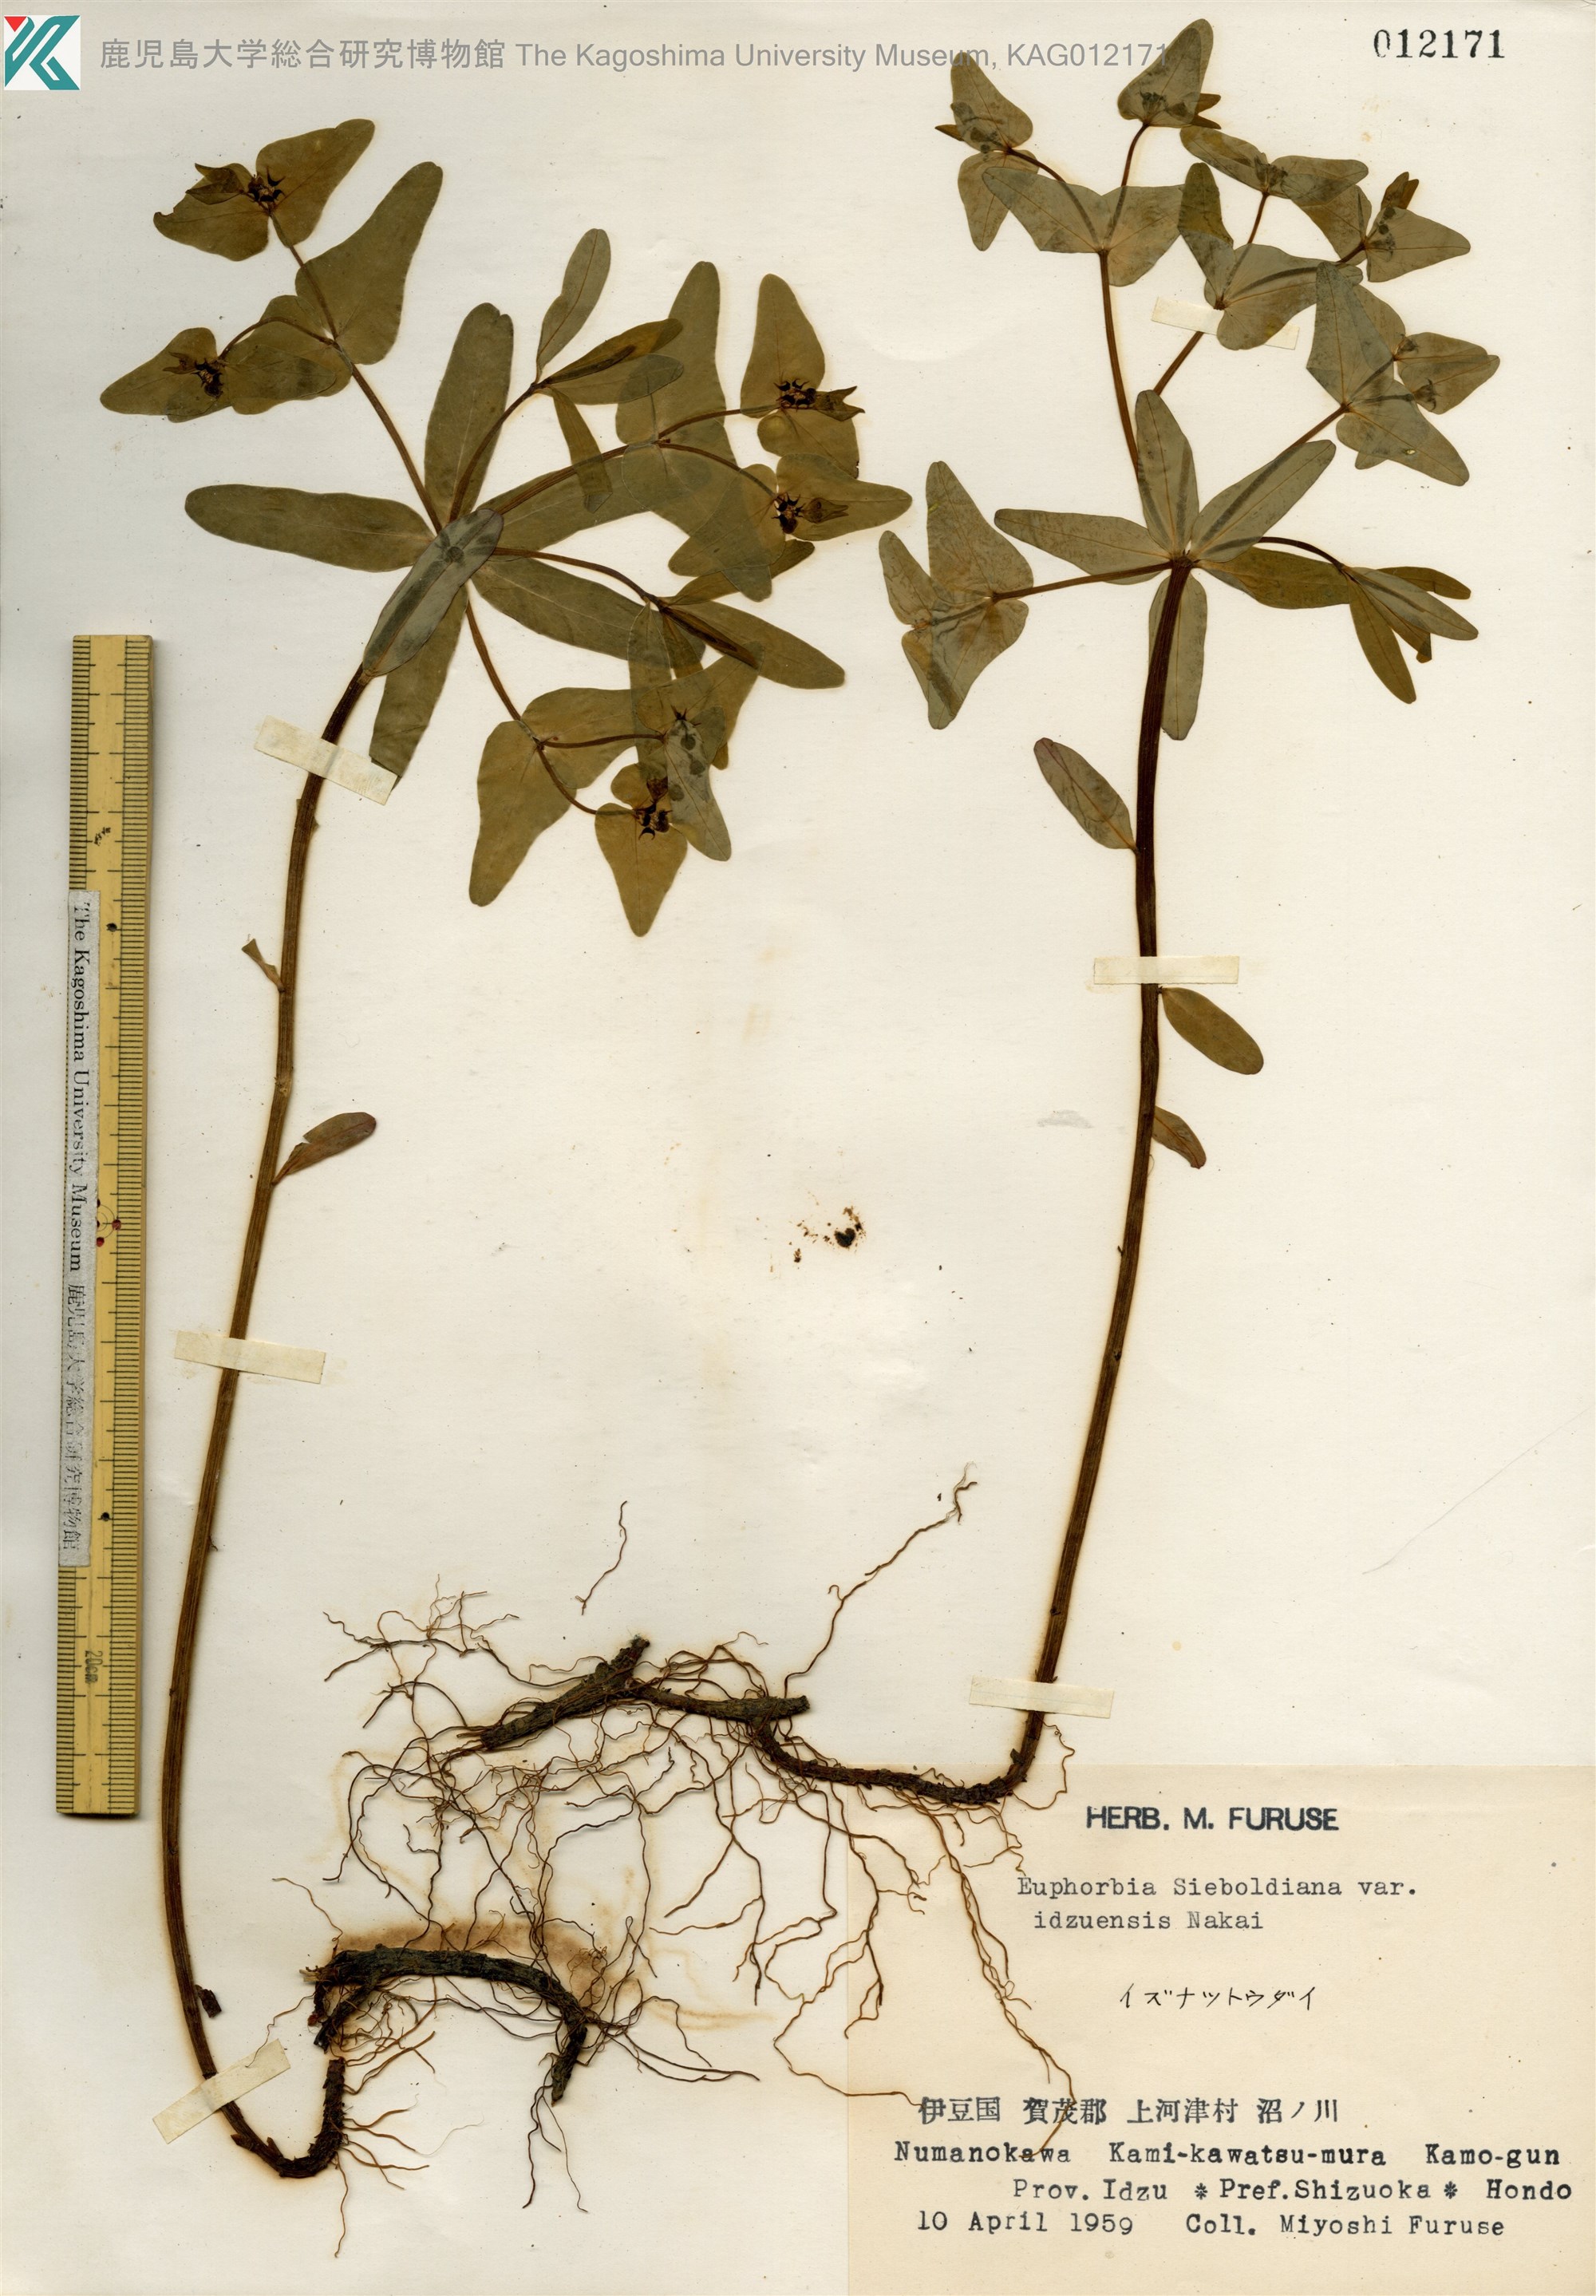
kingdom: Plantae
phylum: Tracheophyta
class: Magnoliopsida
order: Malpighiales
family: Euphorbiaceae
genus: Euphorbia
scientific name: Euphorbia sieboldiana
